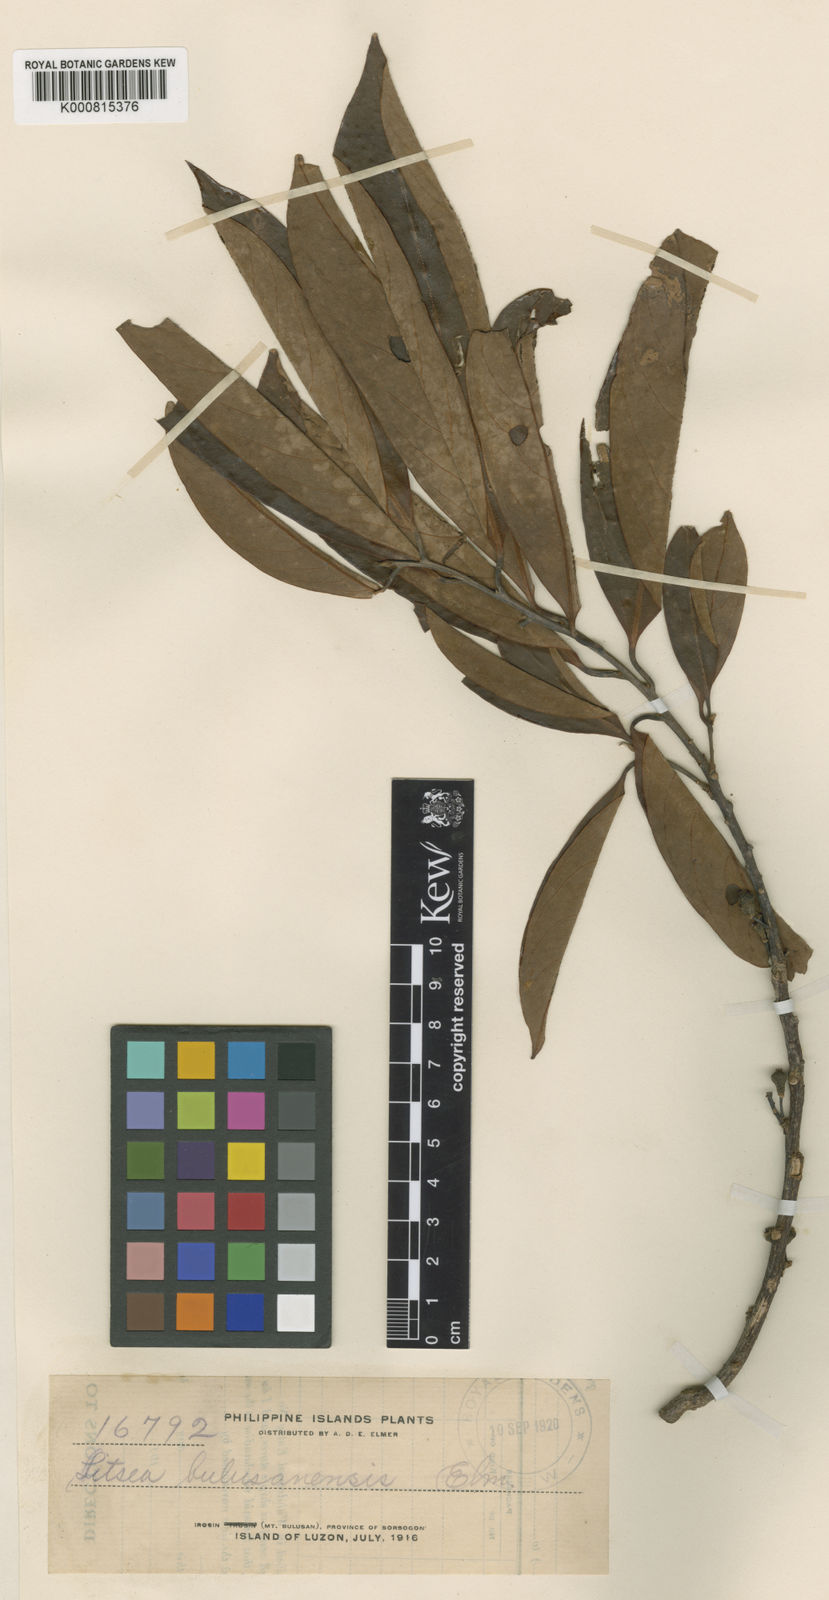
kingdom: Plantae
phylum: Tracheophyta
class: Magnoliopsida
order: Laurales
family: Lauraceae
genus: Litsea
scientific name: Litsea bulusanensis
